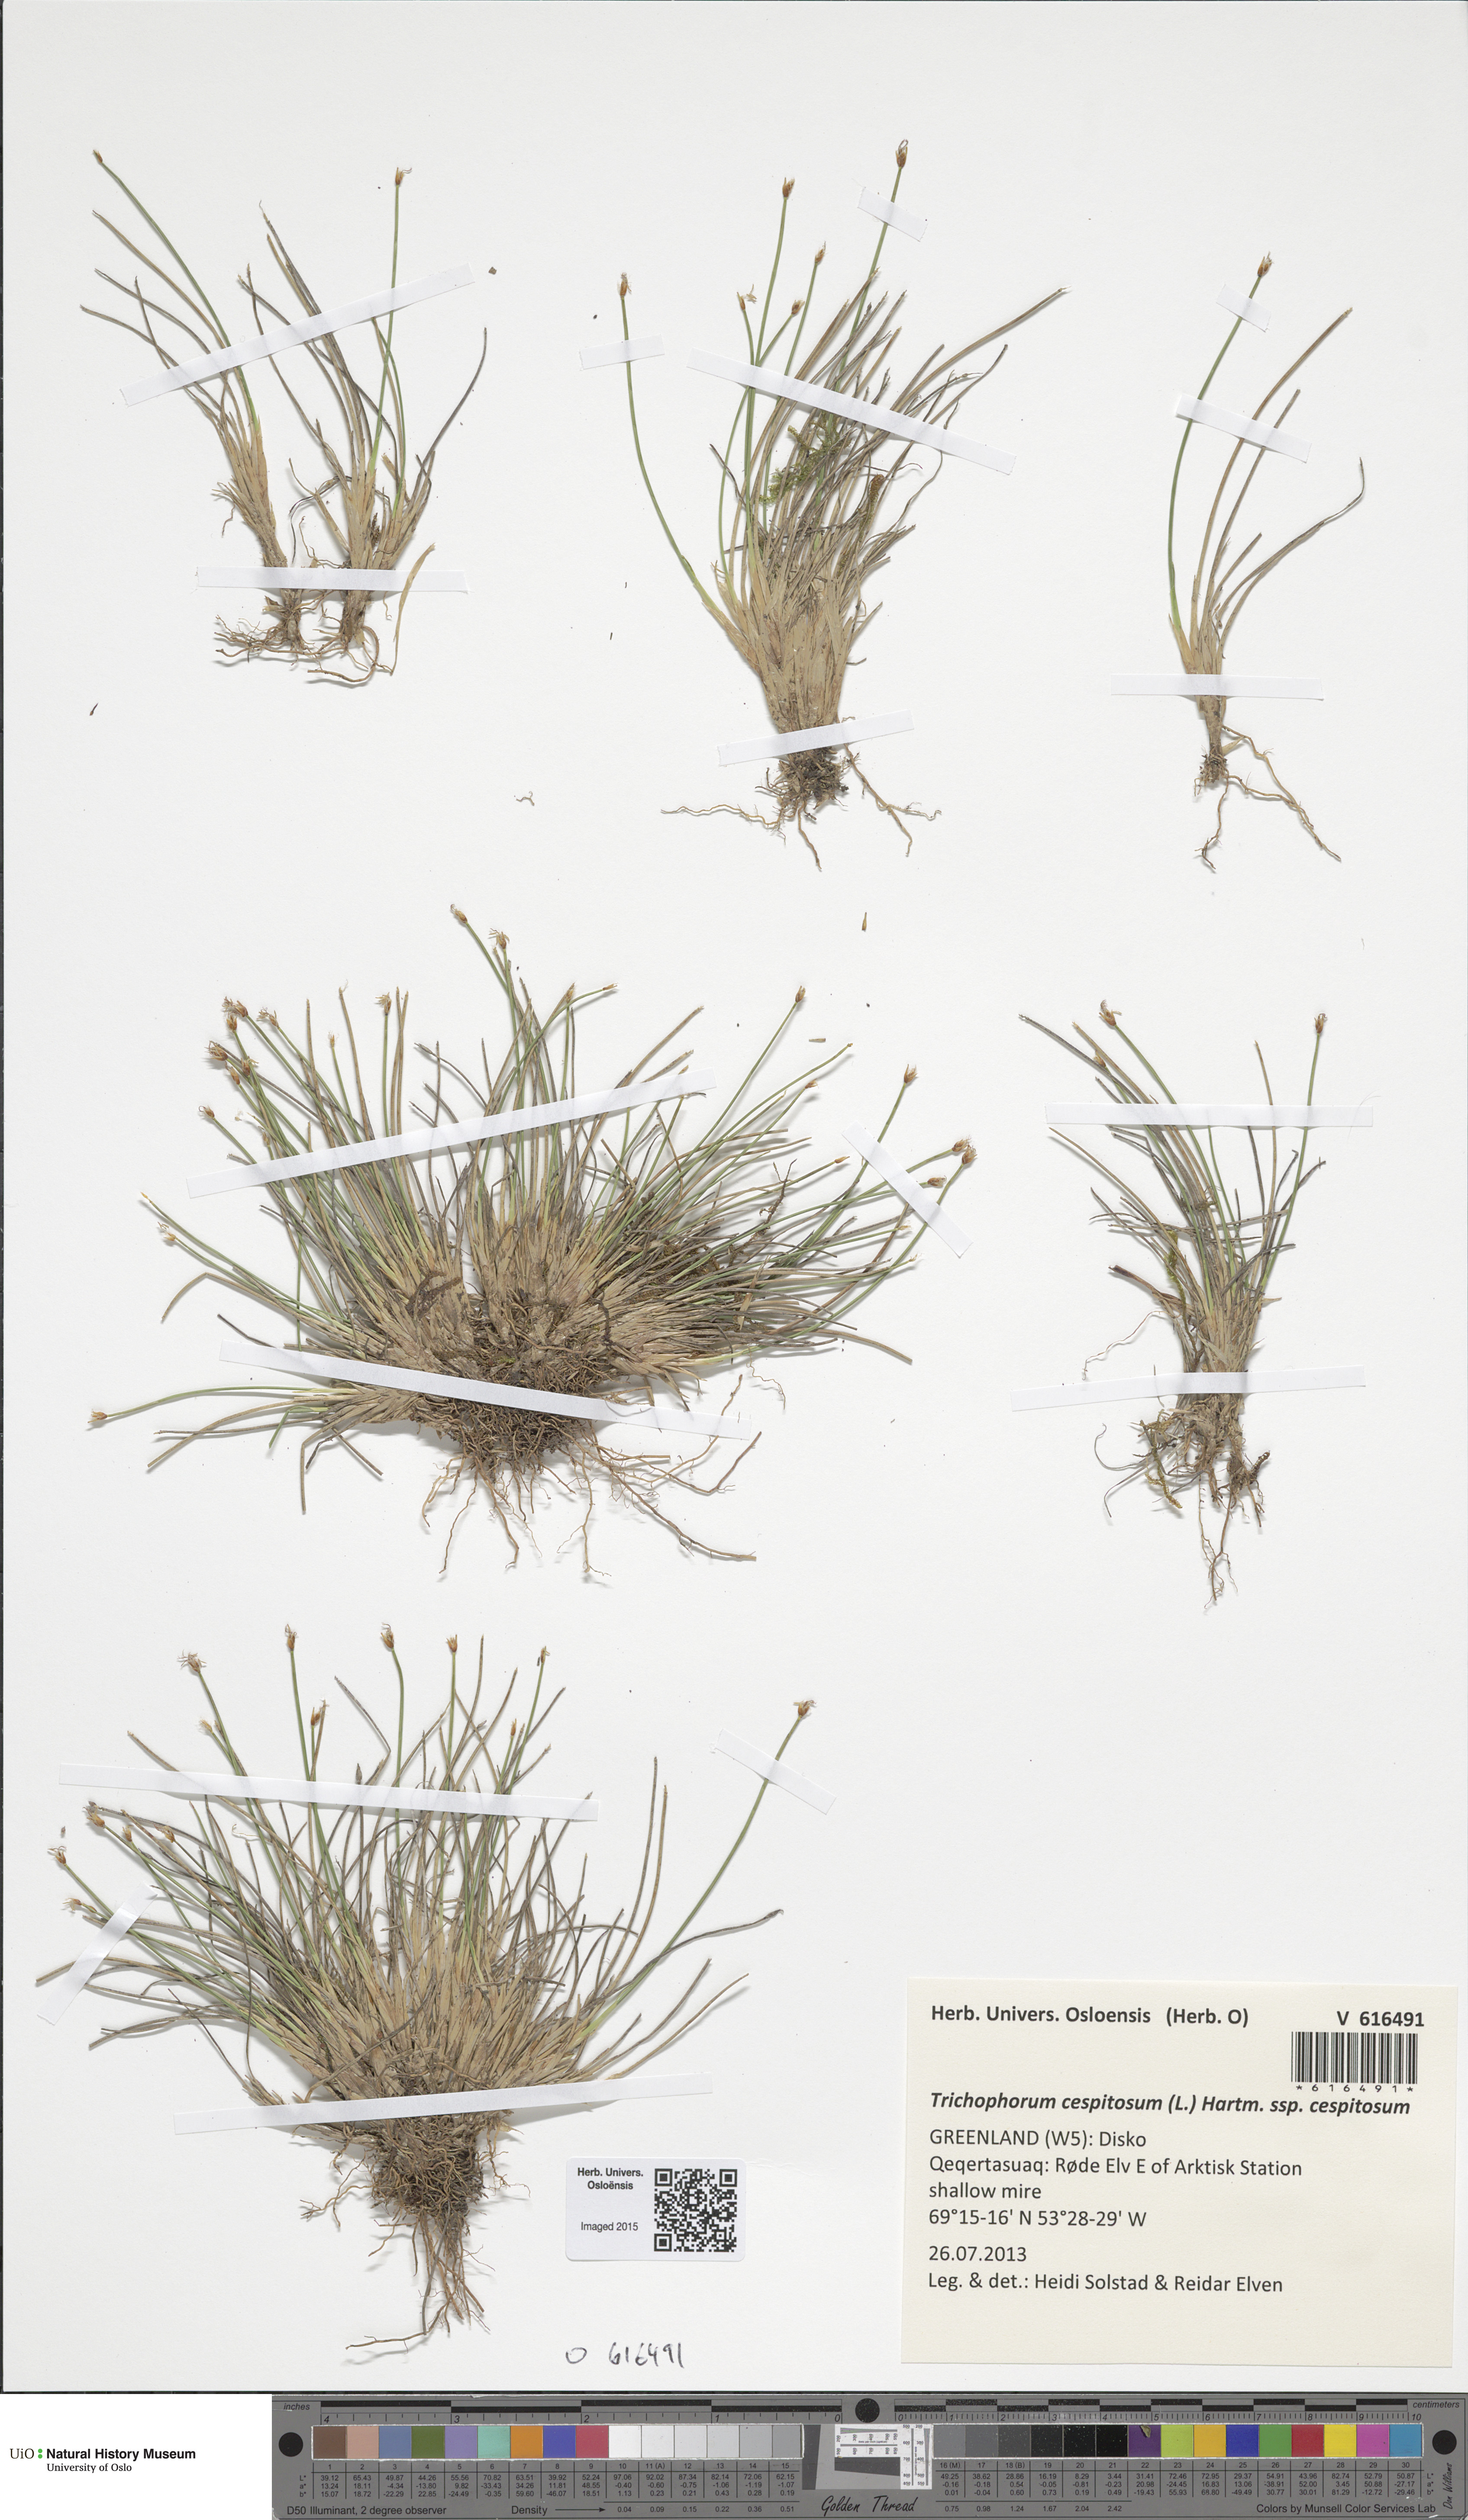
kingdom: Plantae
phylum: Tracheophyta
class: Liliopsida
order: Poales
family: Cyperaceae
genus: Trichophorum
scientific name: Trichophorum cespitosum
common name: Cespitose bulrush
